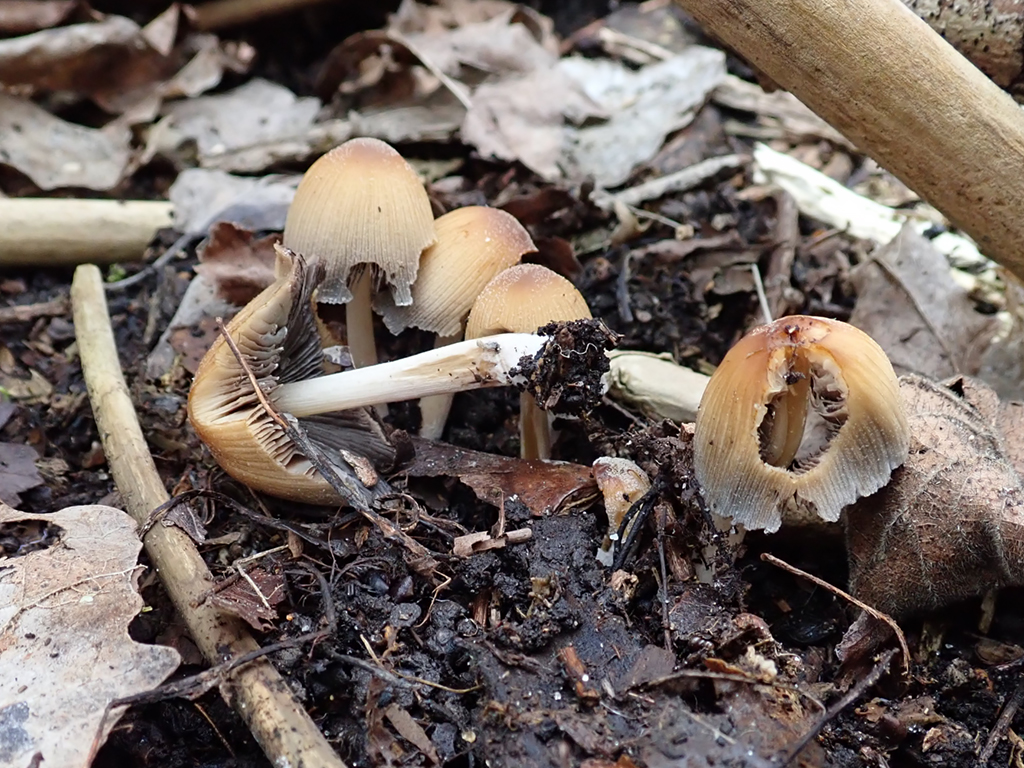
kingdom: Fungi
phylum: Basidiomycota
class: Agaricomycetes
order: Agaricales
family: Psathyrellaceae
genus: Coprinellus
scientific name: Coprinellus micaceus
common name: glimmer-blækhat
